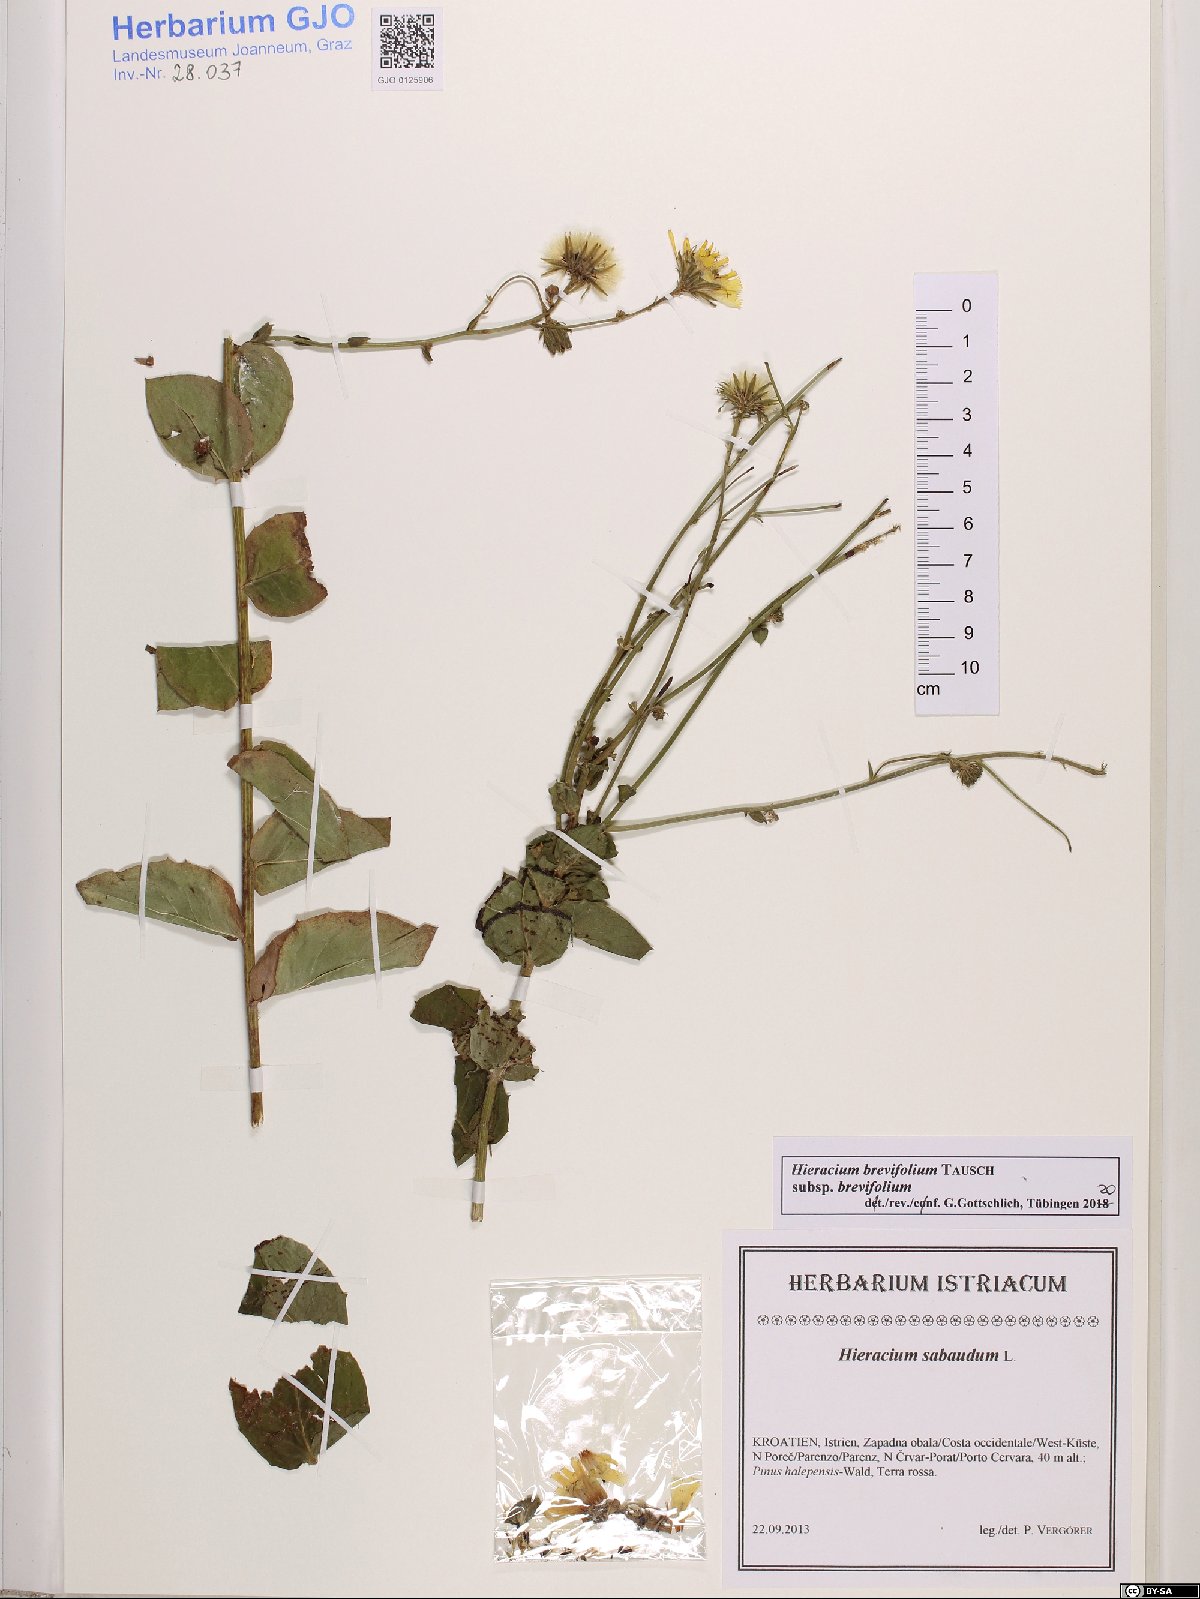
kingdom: Plantae
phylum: Tracheophyta
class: Magnoliopsida
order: Asterales
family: Asteraceae
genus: Hieracium
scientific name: Hieracium brevifolium
